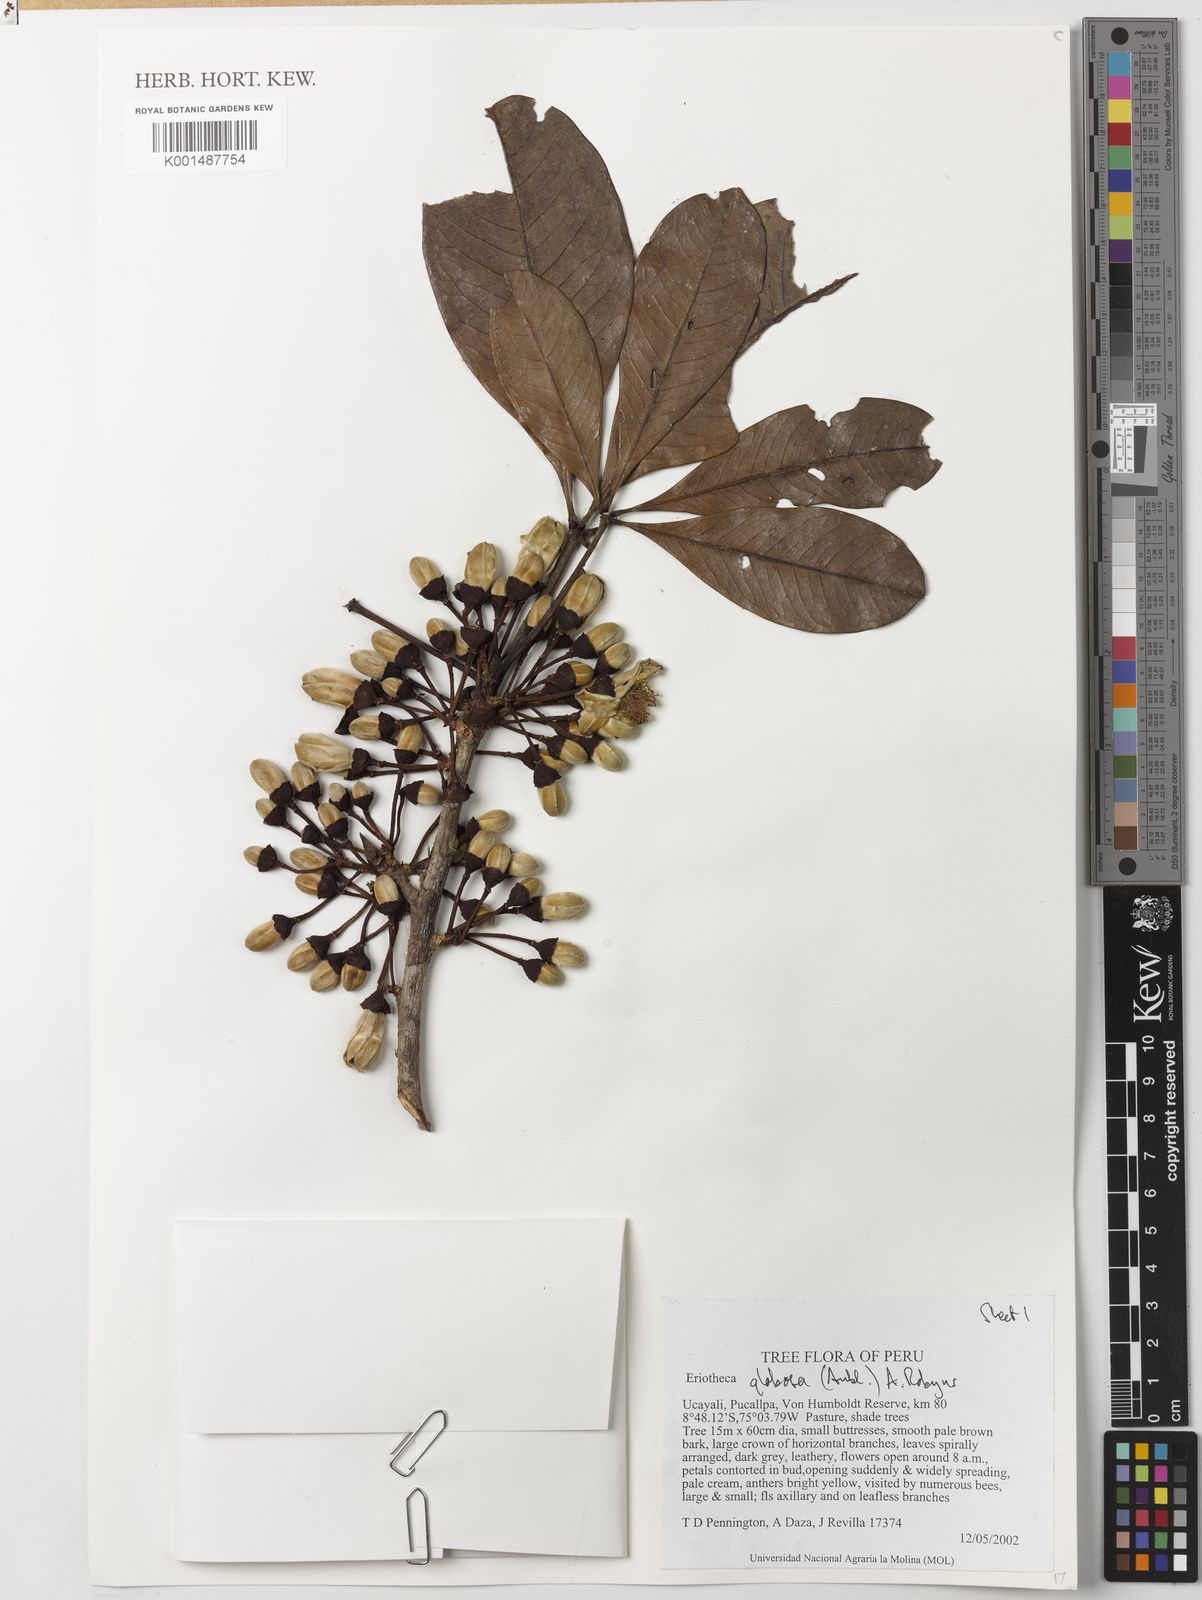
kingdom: Plantae
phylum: Tracheophyta
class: Magnoliopsida
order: Malvales
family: Malvaceae
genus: Eriotheca
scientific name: Eriotheca globosa
